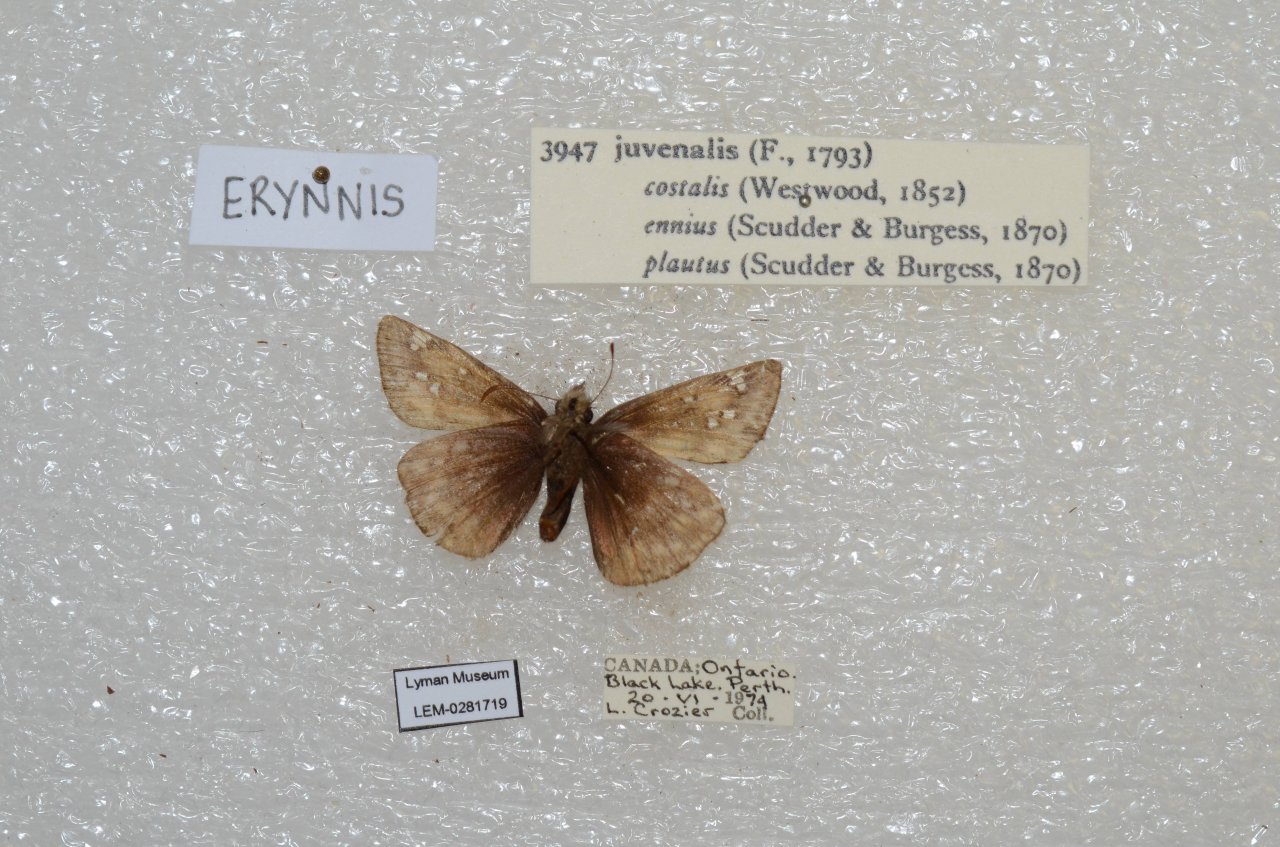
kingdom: Animalia
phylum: Arthropoda
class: Insecta
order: Lepidoptera
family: Hesperiidae
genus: Gesta
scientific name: Gesta
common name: Juvenal's Duskywing
